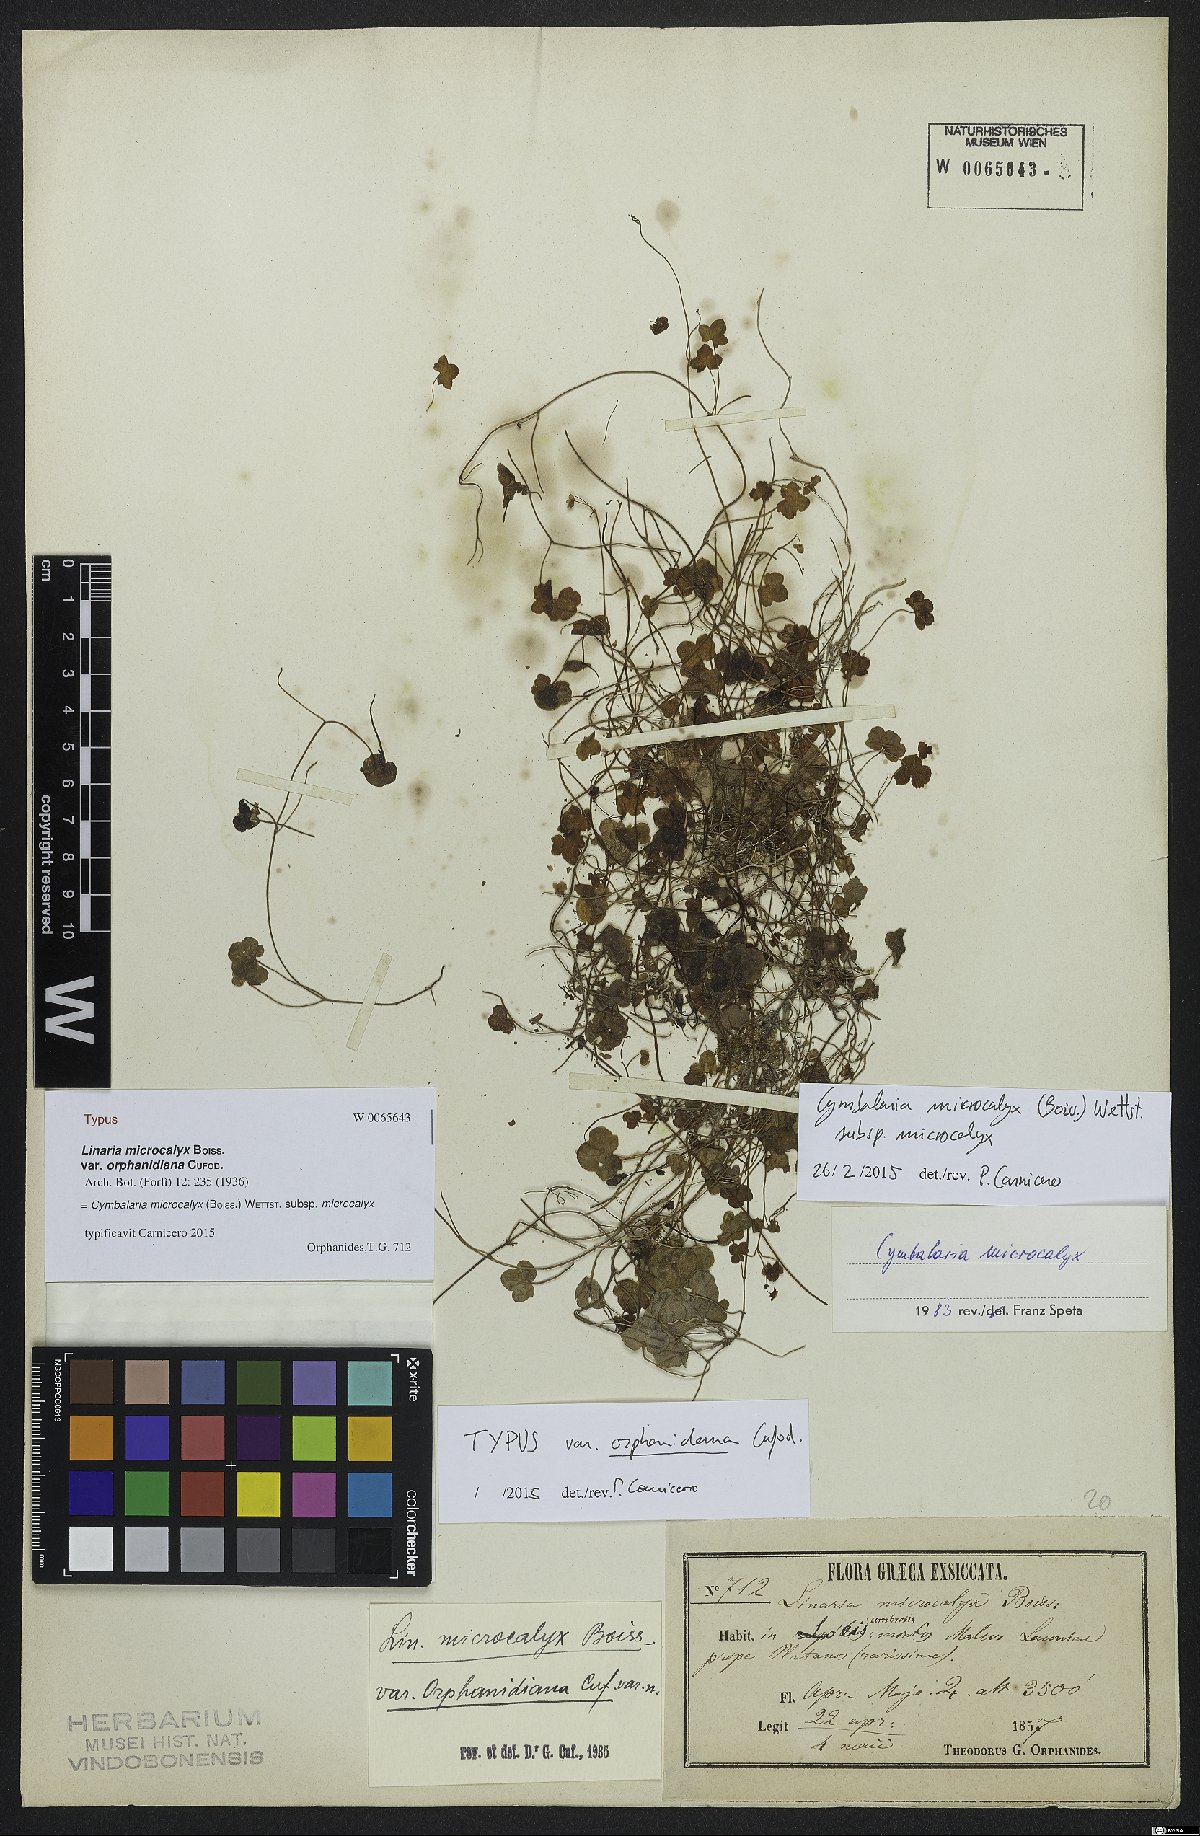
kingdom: Plantae
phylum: Tracheophyta
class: Magnoliopsida
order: Lamiales
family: Plantaginaceae
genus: Cymbalaria
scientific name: Cymbalaria microcalyx
